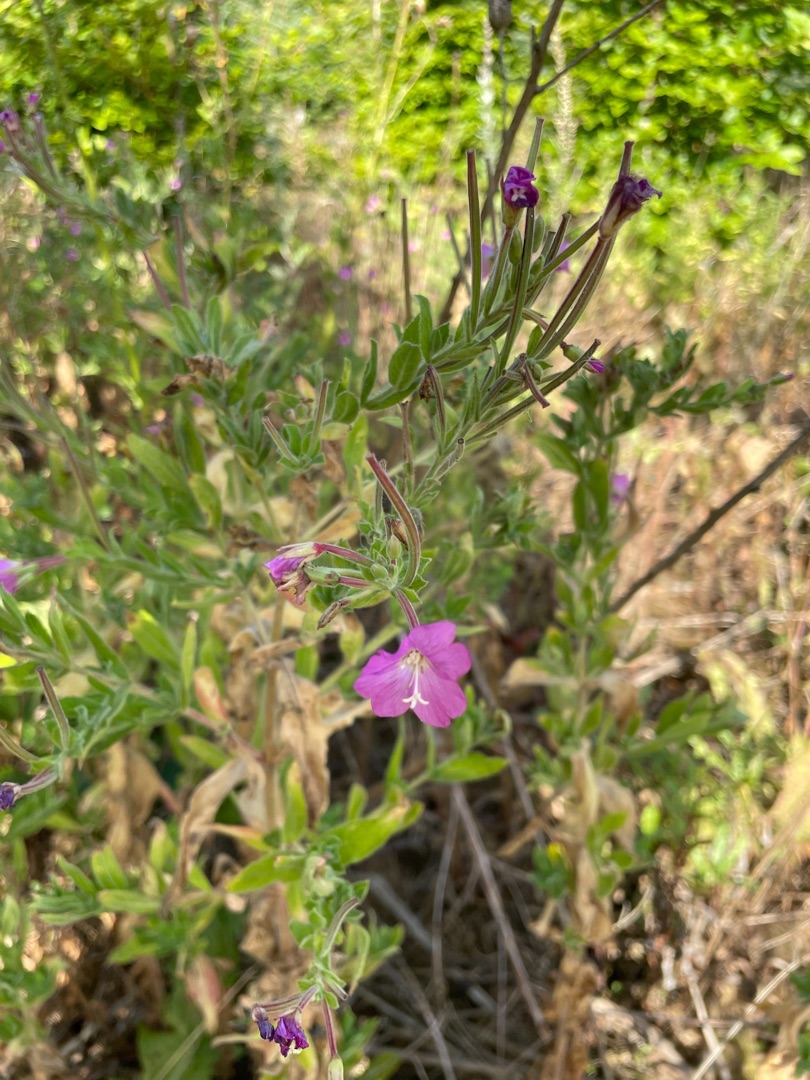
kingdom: Plantae
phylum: Tracheophyta
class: Magnoliopsida
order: Myrtales
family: Onagraceae
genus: Epilobium
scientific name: Epilobium hirsutum
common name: Lådden dueurt
